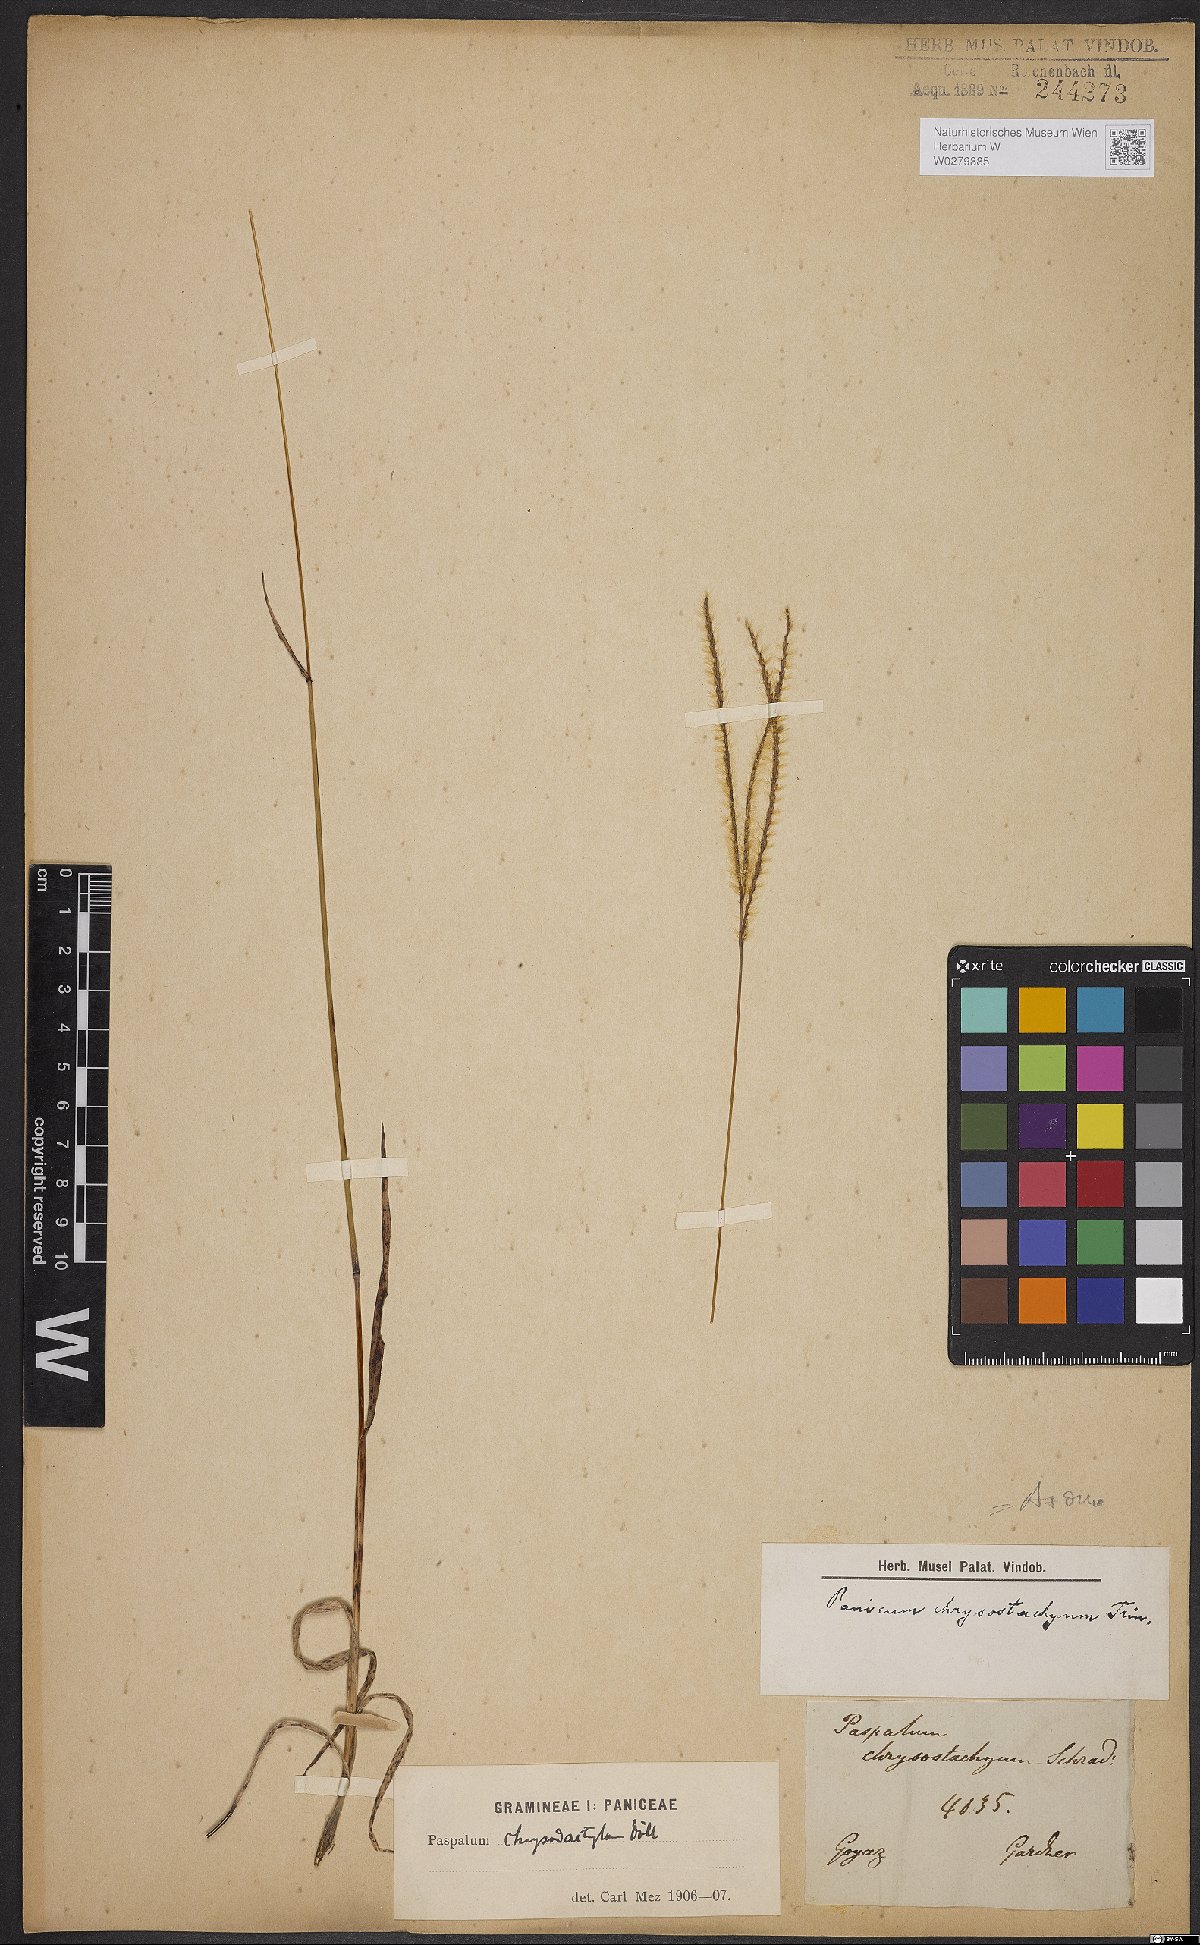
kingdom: Plantae
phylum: Tracheophyta
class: Liliopsida
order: Poales
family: Poaceae
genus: Axonopus
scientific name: Axonopus aureus
